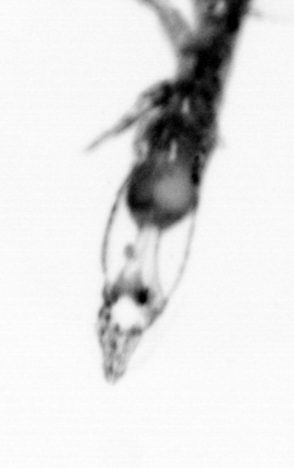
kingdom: Animalia
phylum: Arthropoda
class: Copepoda
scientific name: Copepoda
